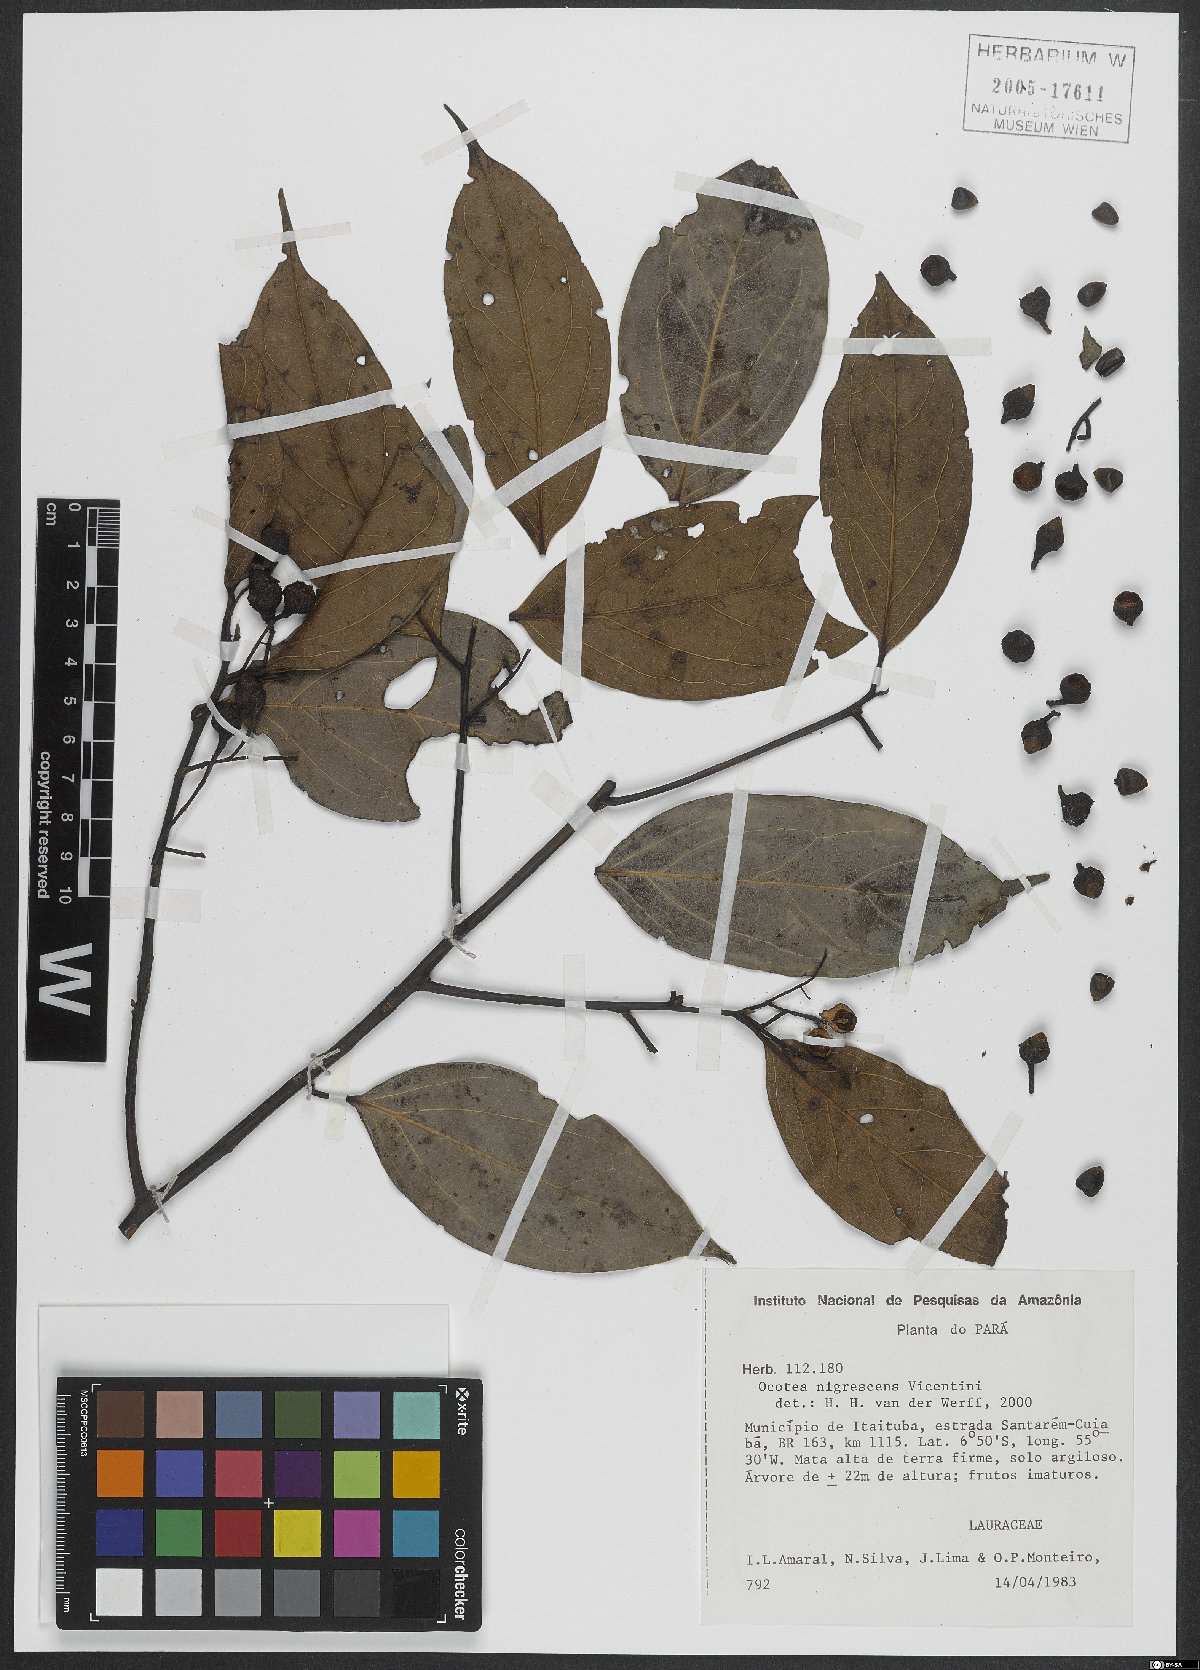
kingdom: Plantae
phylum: Tracheophyta
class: Magnoliopsida
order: Laurales
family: Lauraceae
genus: Ocotea
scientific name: Ocotea nigrescens
